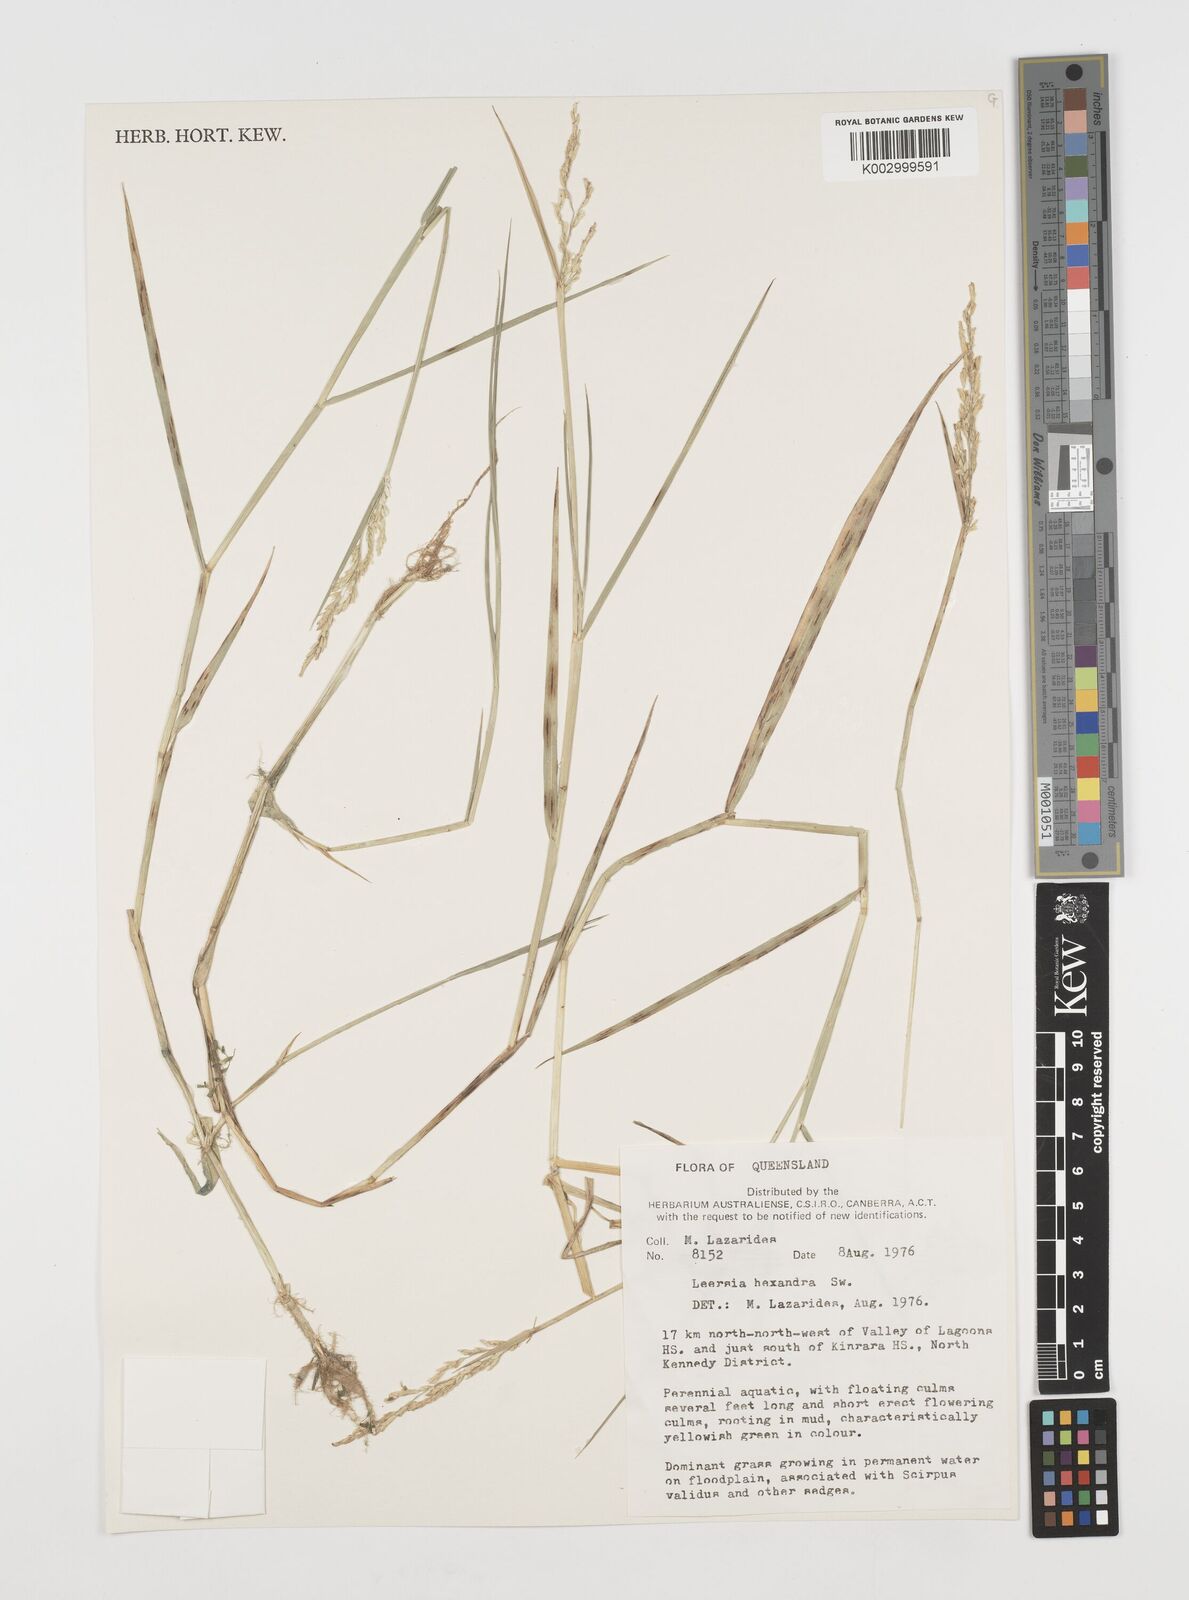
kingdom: Plantae
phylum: Tracheophyta
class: Liliopsida
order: Poales
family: Poaceae
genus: Leersia
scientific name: Leersia hexandra
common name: Southern cut grass
